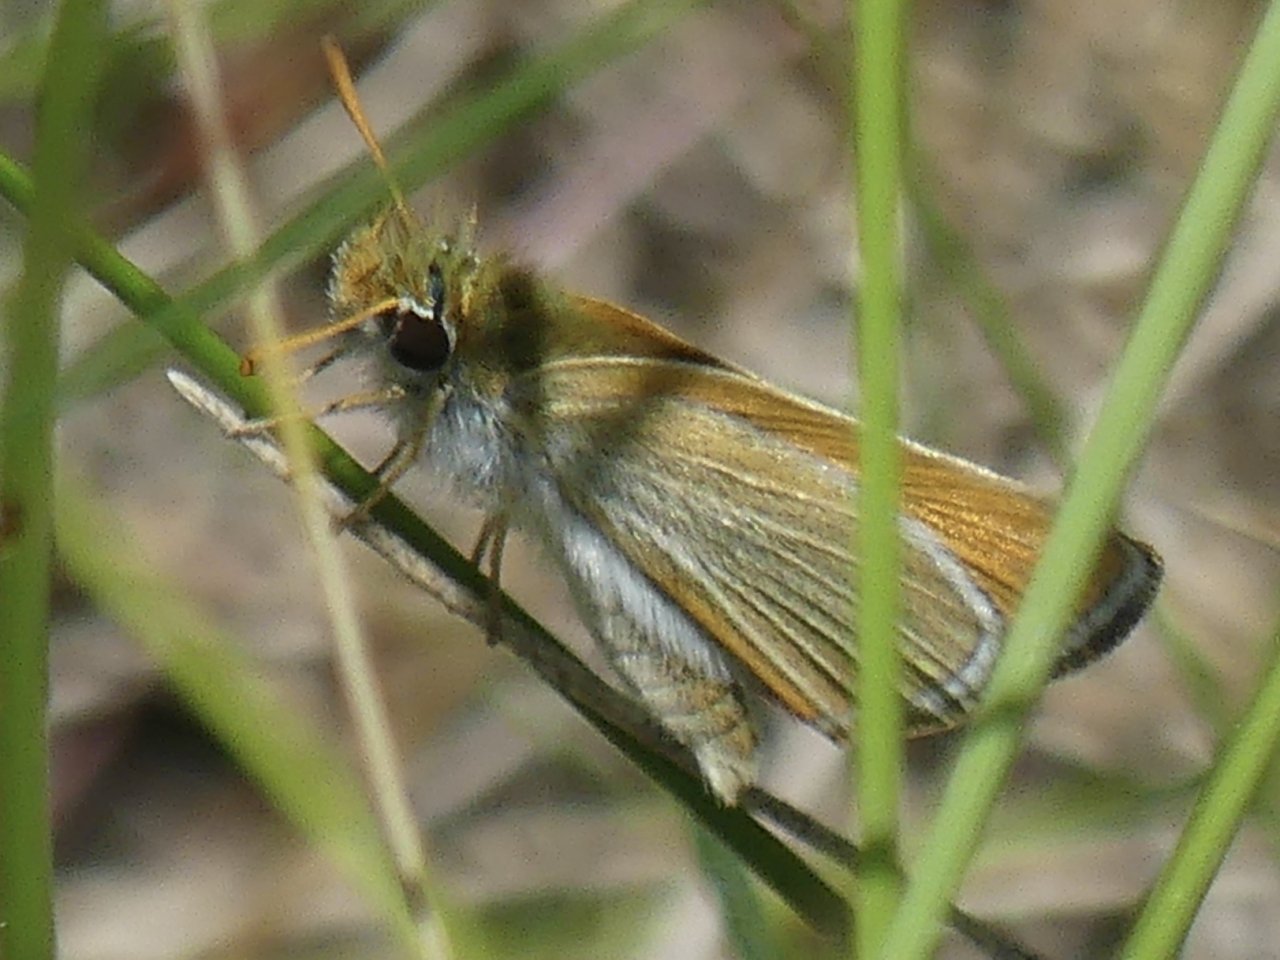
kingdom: Animalia
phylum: Arthropoda
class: Insecta
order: Lepidoptera
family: Hesperiidae
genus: Oarisma
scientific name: Oarisma garita
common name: Garita Skipperling
